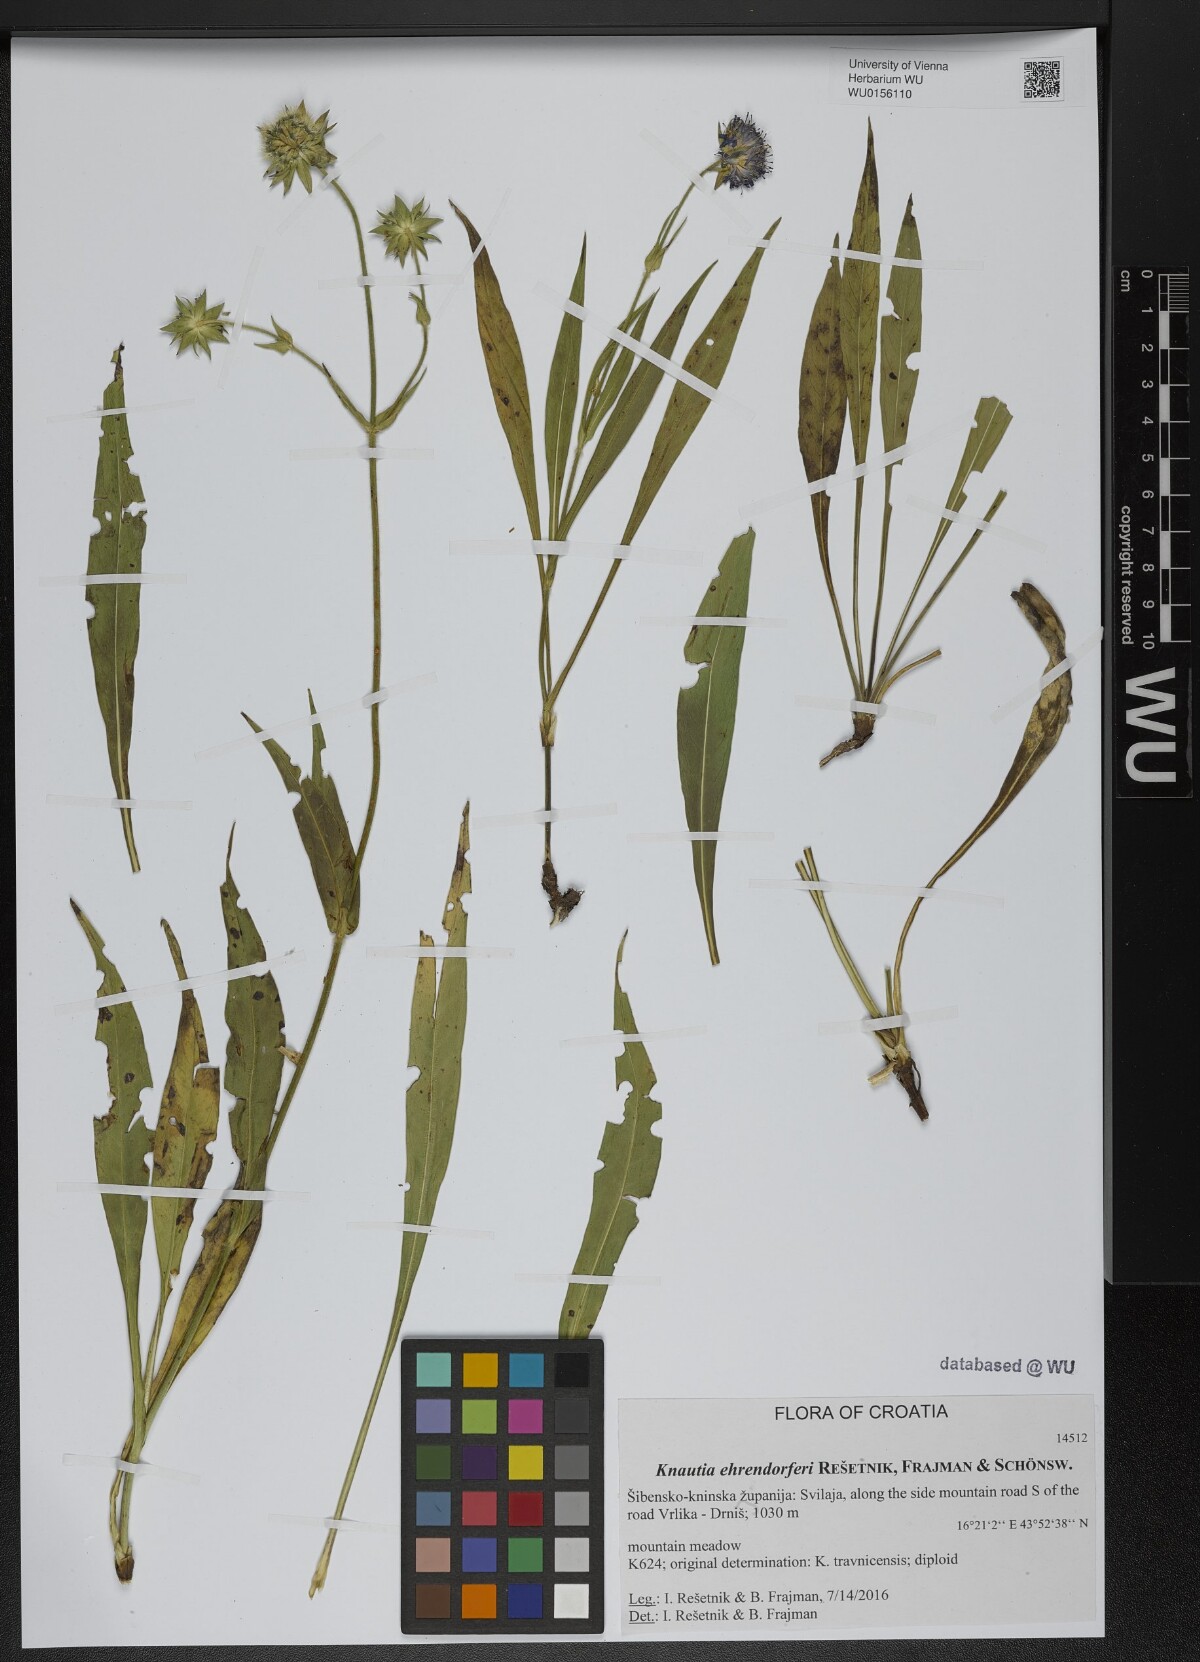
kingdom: Plantae
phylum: Tracheophyta
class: Magnoliopsida
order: Dipsacales
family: Caprifoliaceae
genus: Knautia
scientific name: Knautia
